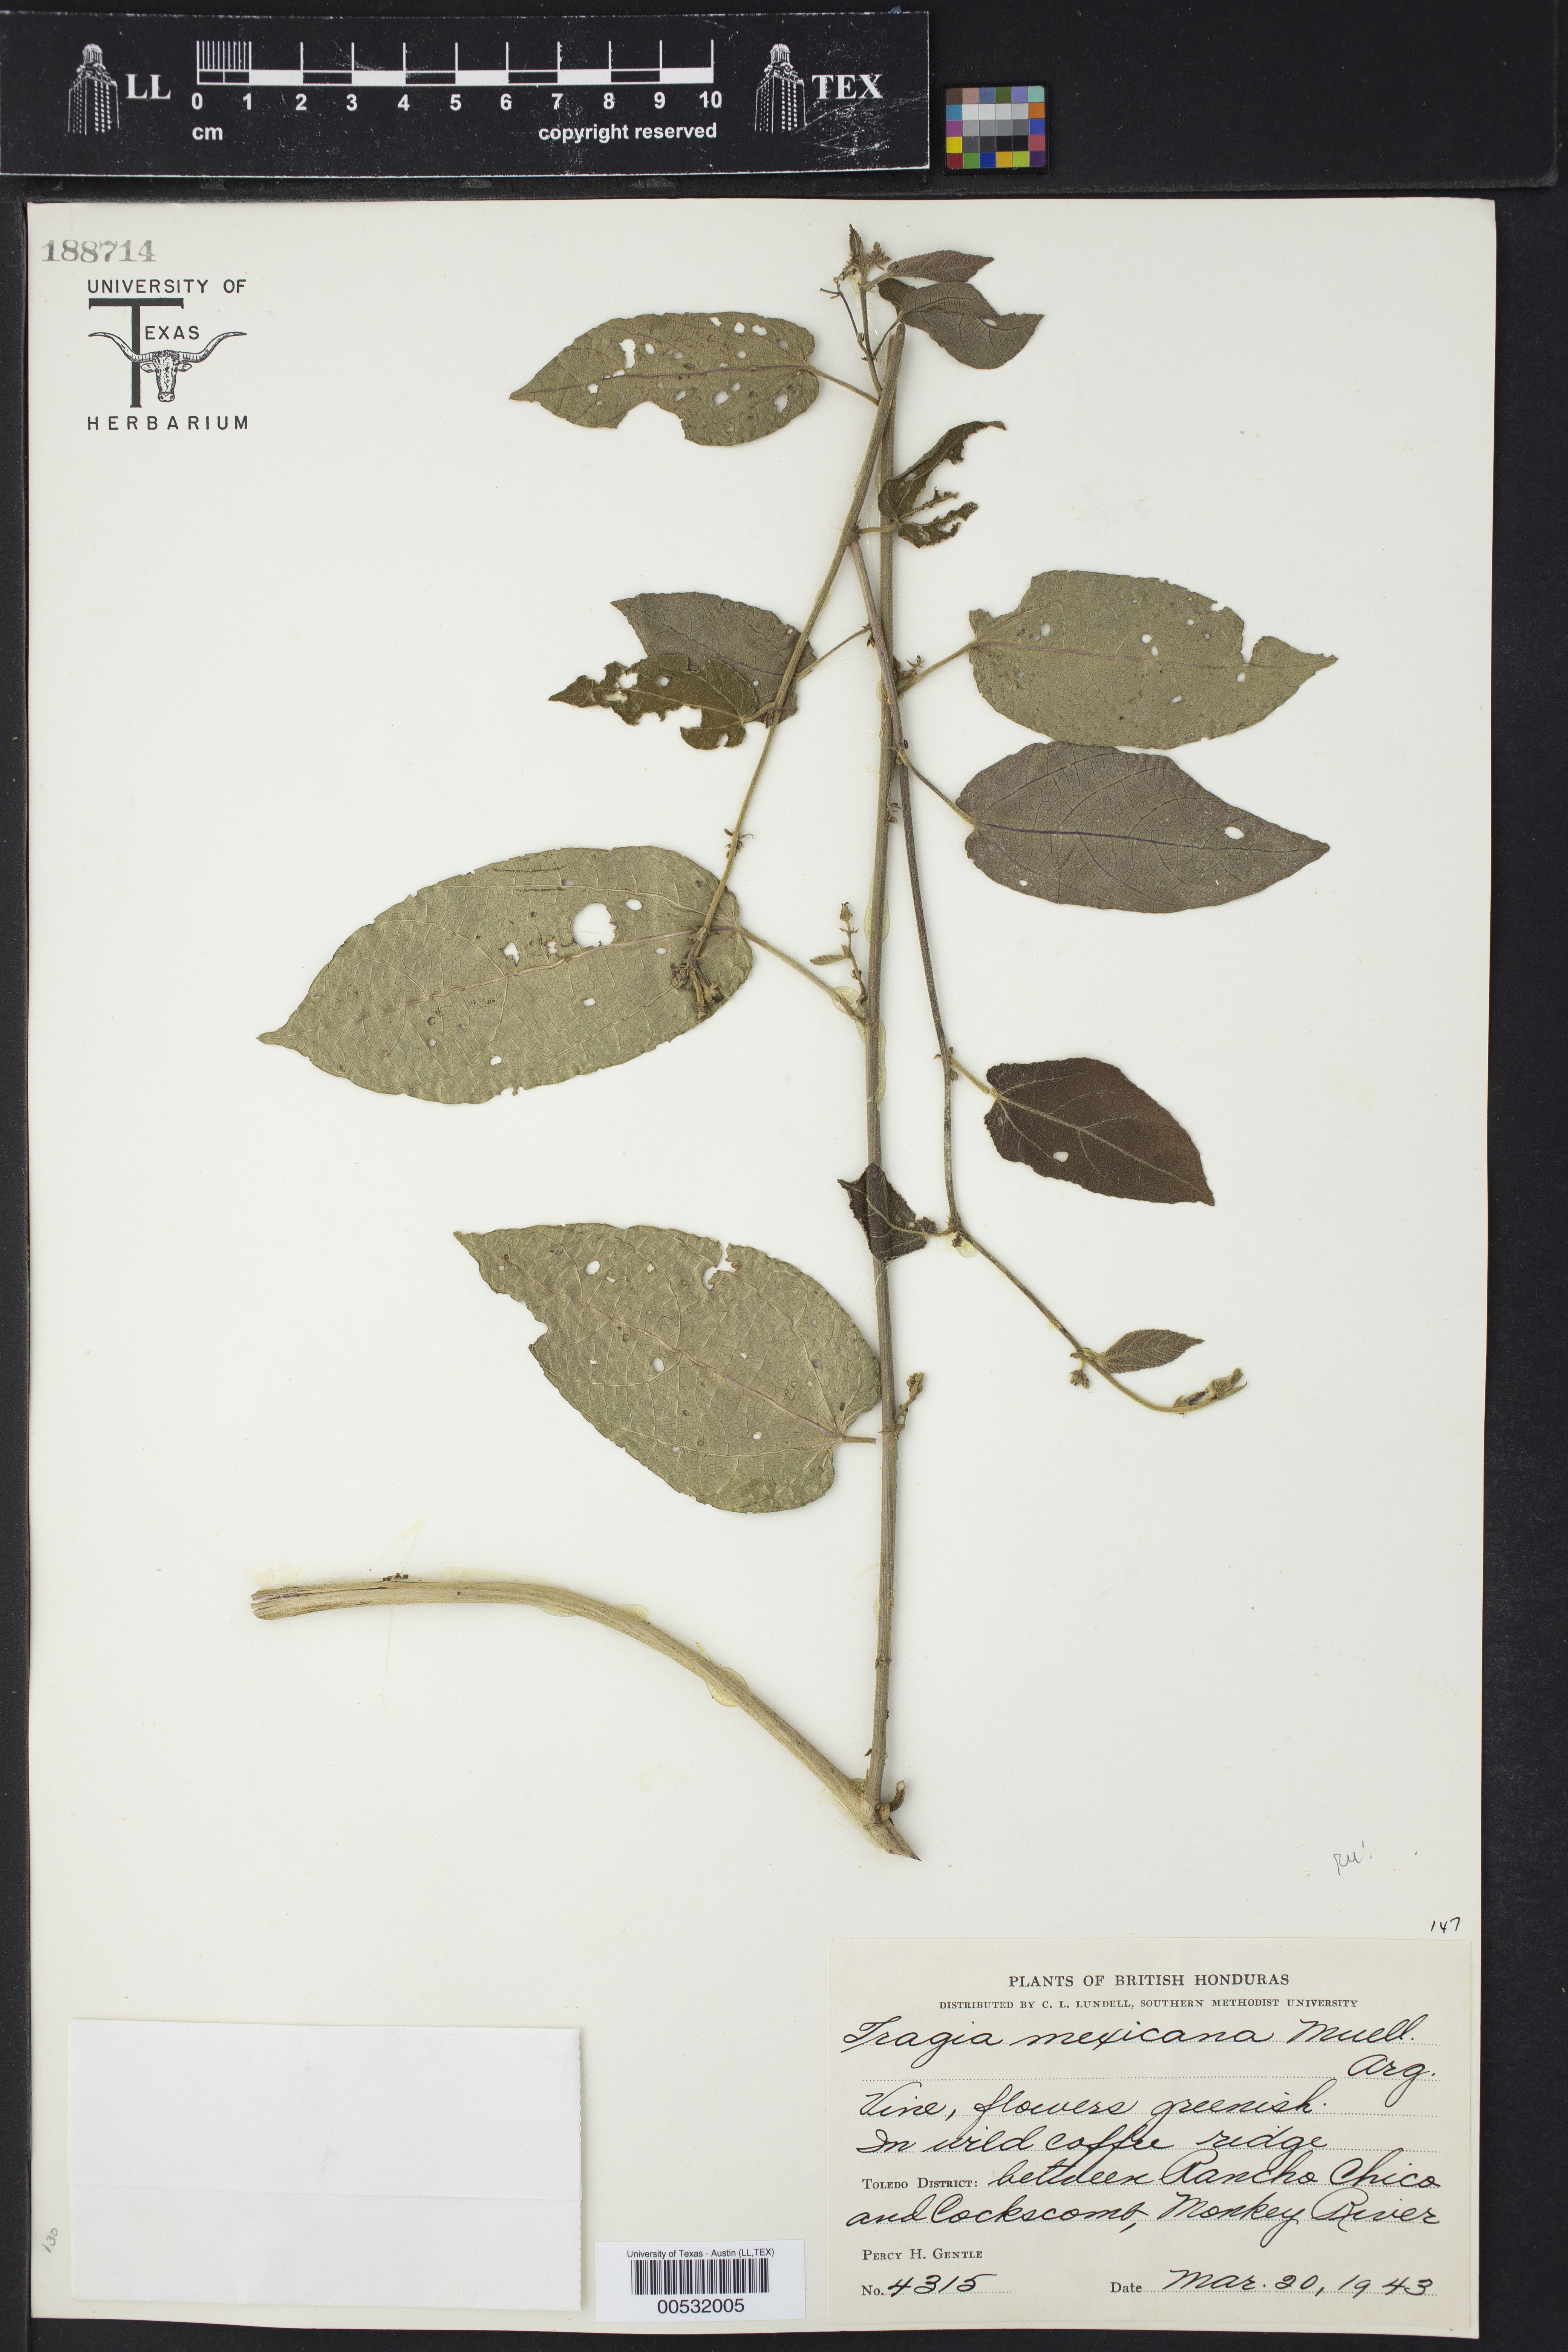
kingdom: Plantae
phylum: Tracheophyta
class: Magnoliopsida
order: Malpighiales
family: Euphorbiaceae
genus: Tragia
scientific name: Tragia mexicana
